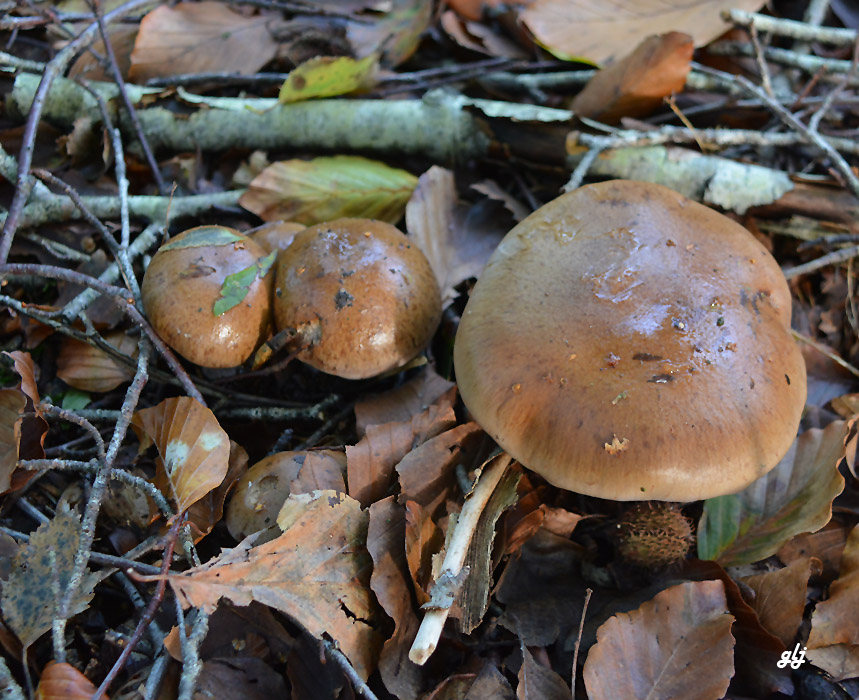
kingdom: Fungi
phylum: Basidiomycota
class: Agaricomycetes
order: Agaricales
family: Cortinariaceae
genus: Phlegmacium
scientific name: Phlegmacium
